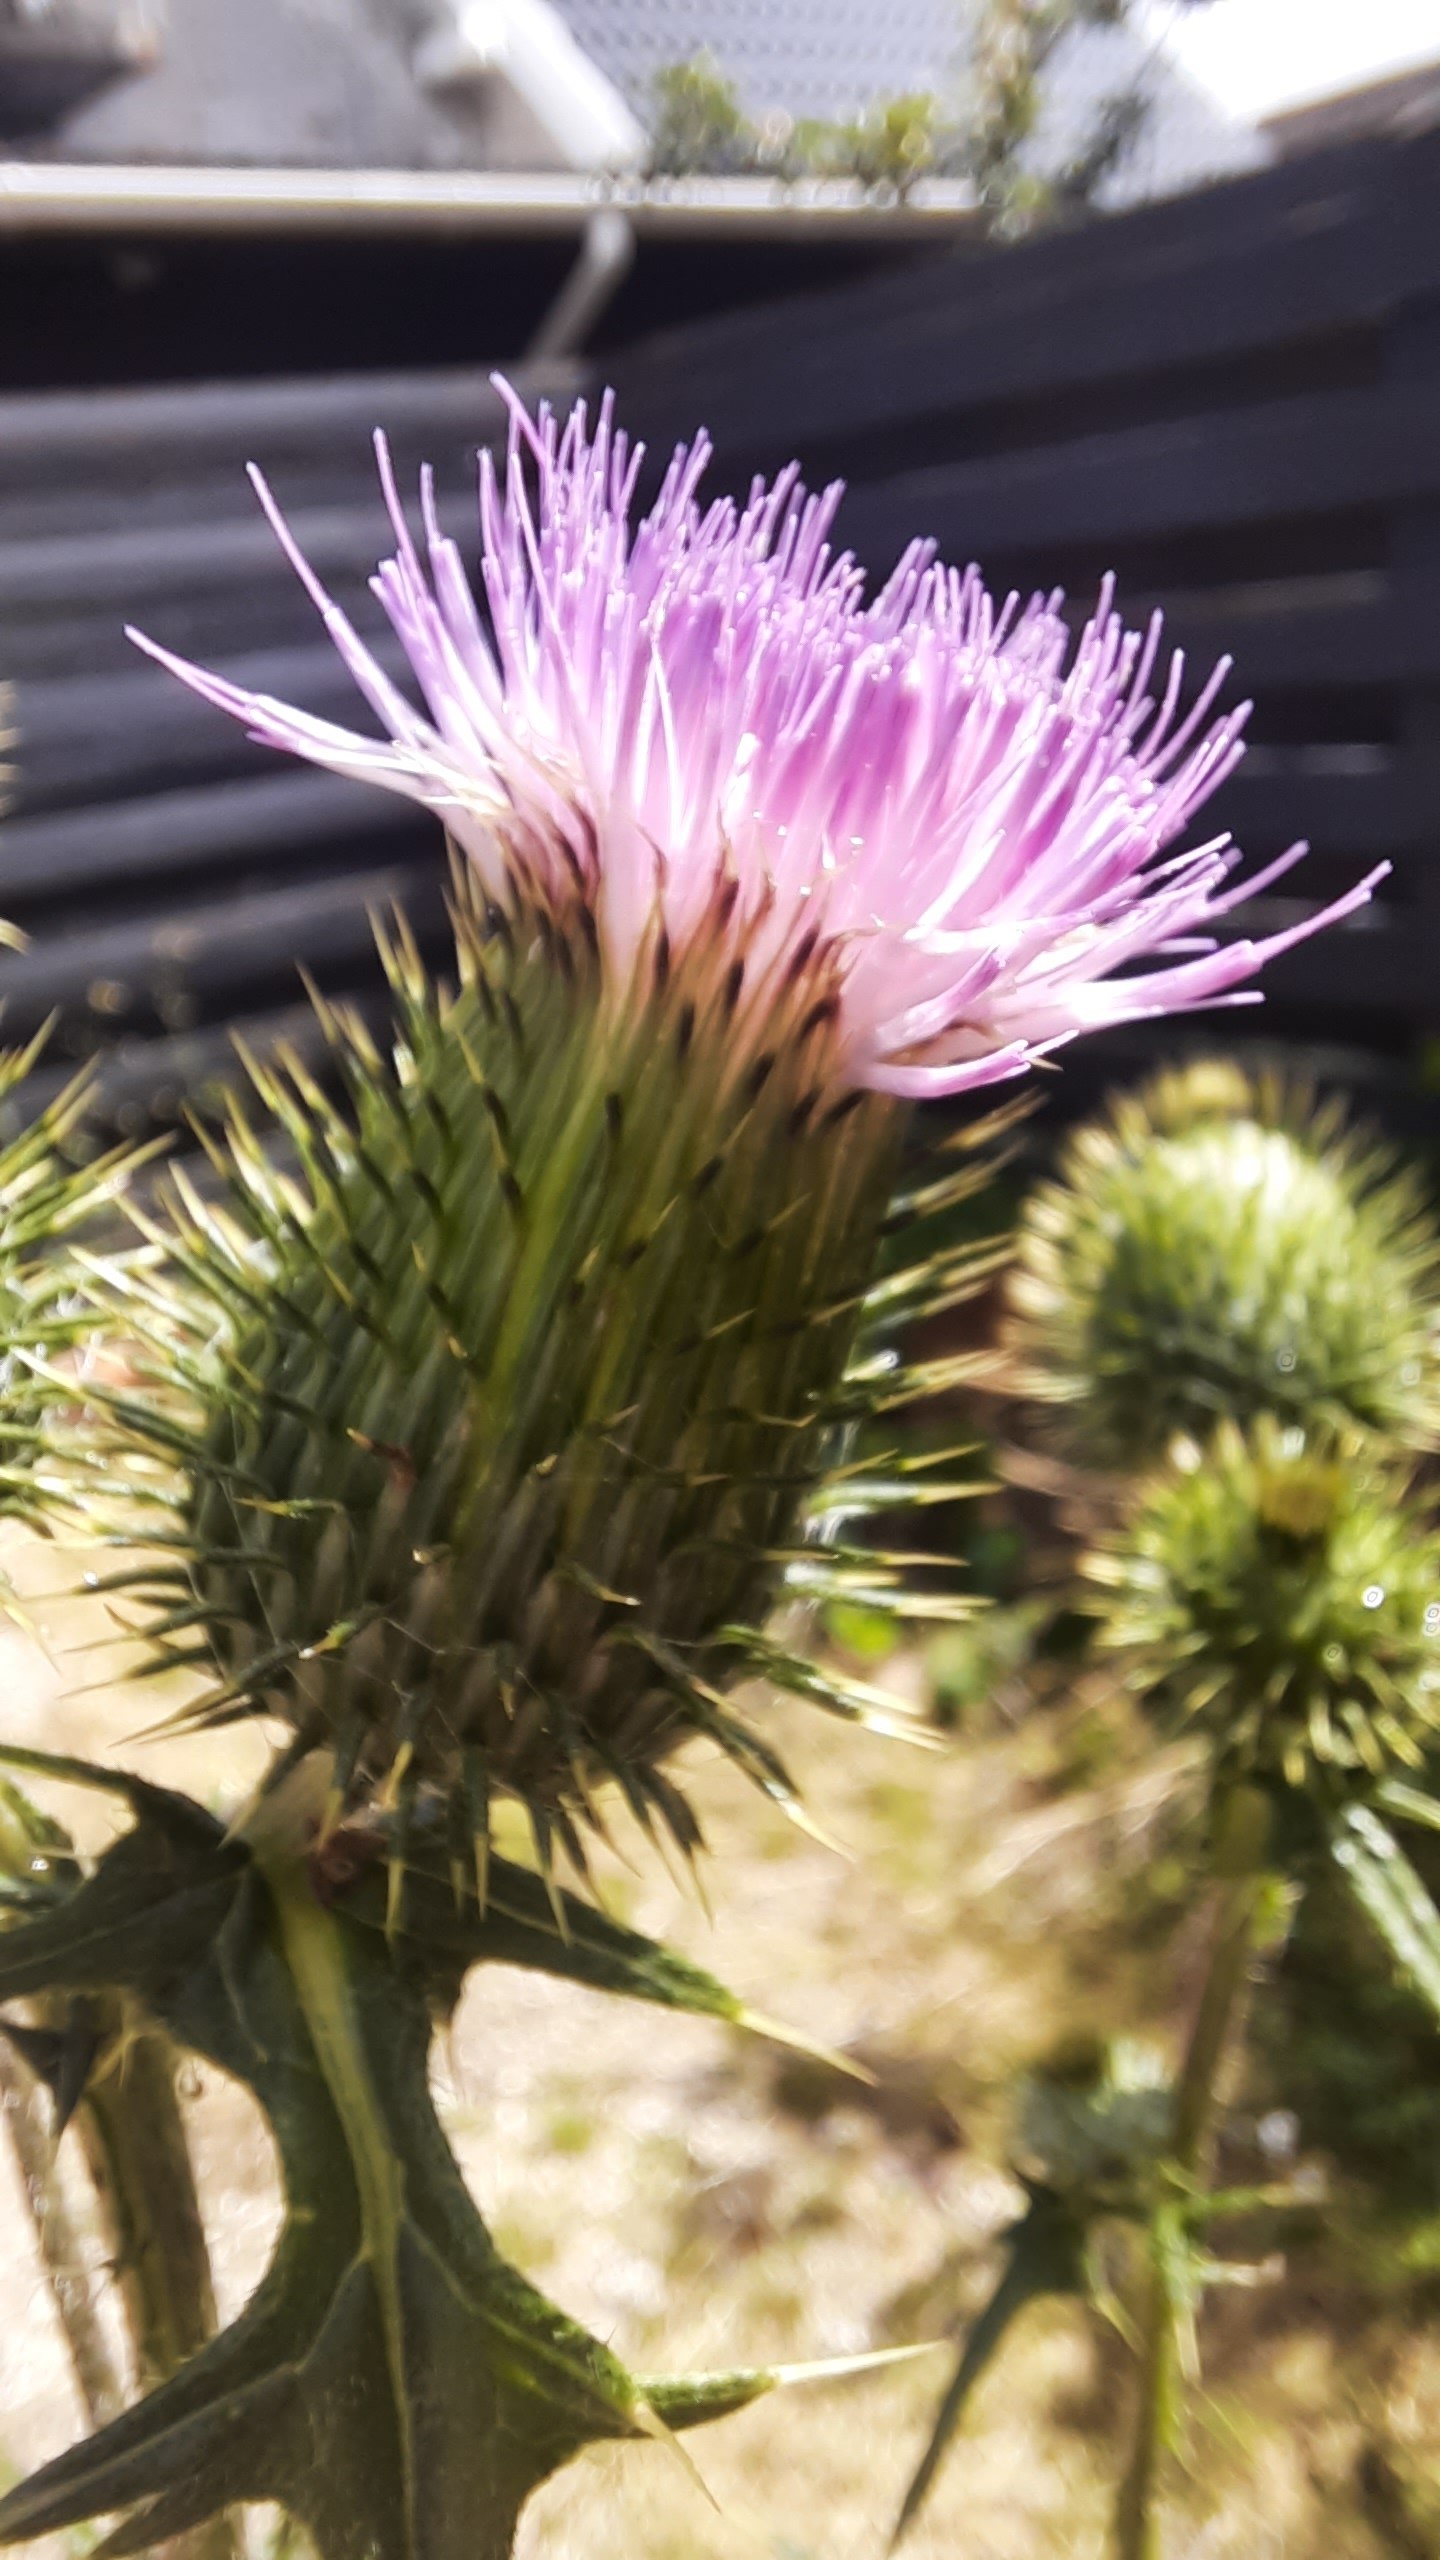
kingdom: Plantae
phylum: Tracheophyta
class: Magnoliopsida
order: Asterales
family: Asteraceae
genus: Cirsium
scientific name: Cirsium vulgare
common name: Horse-tidsel
